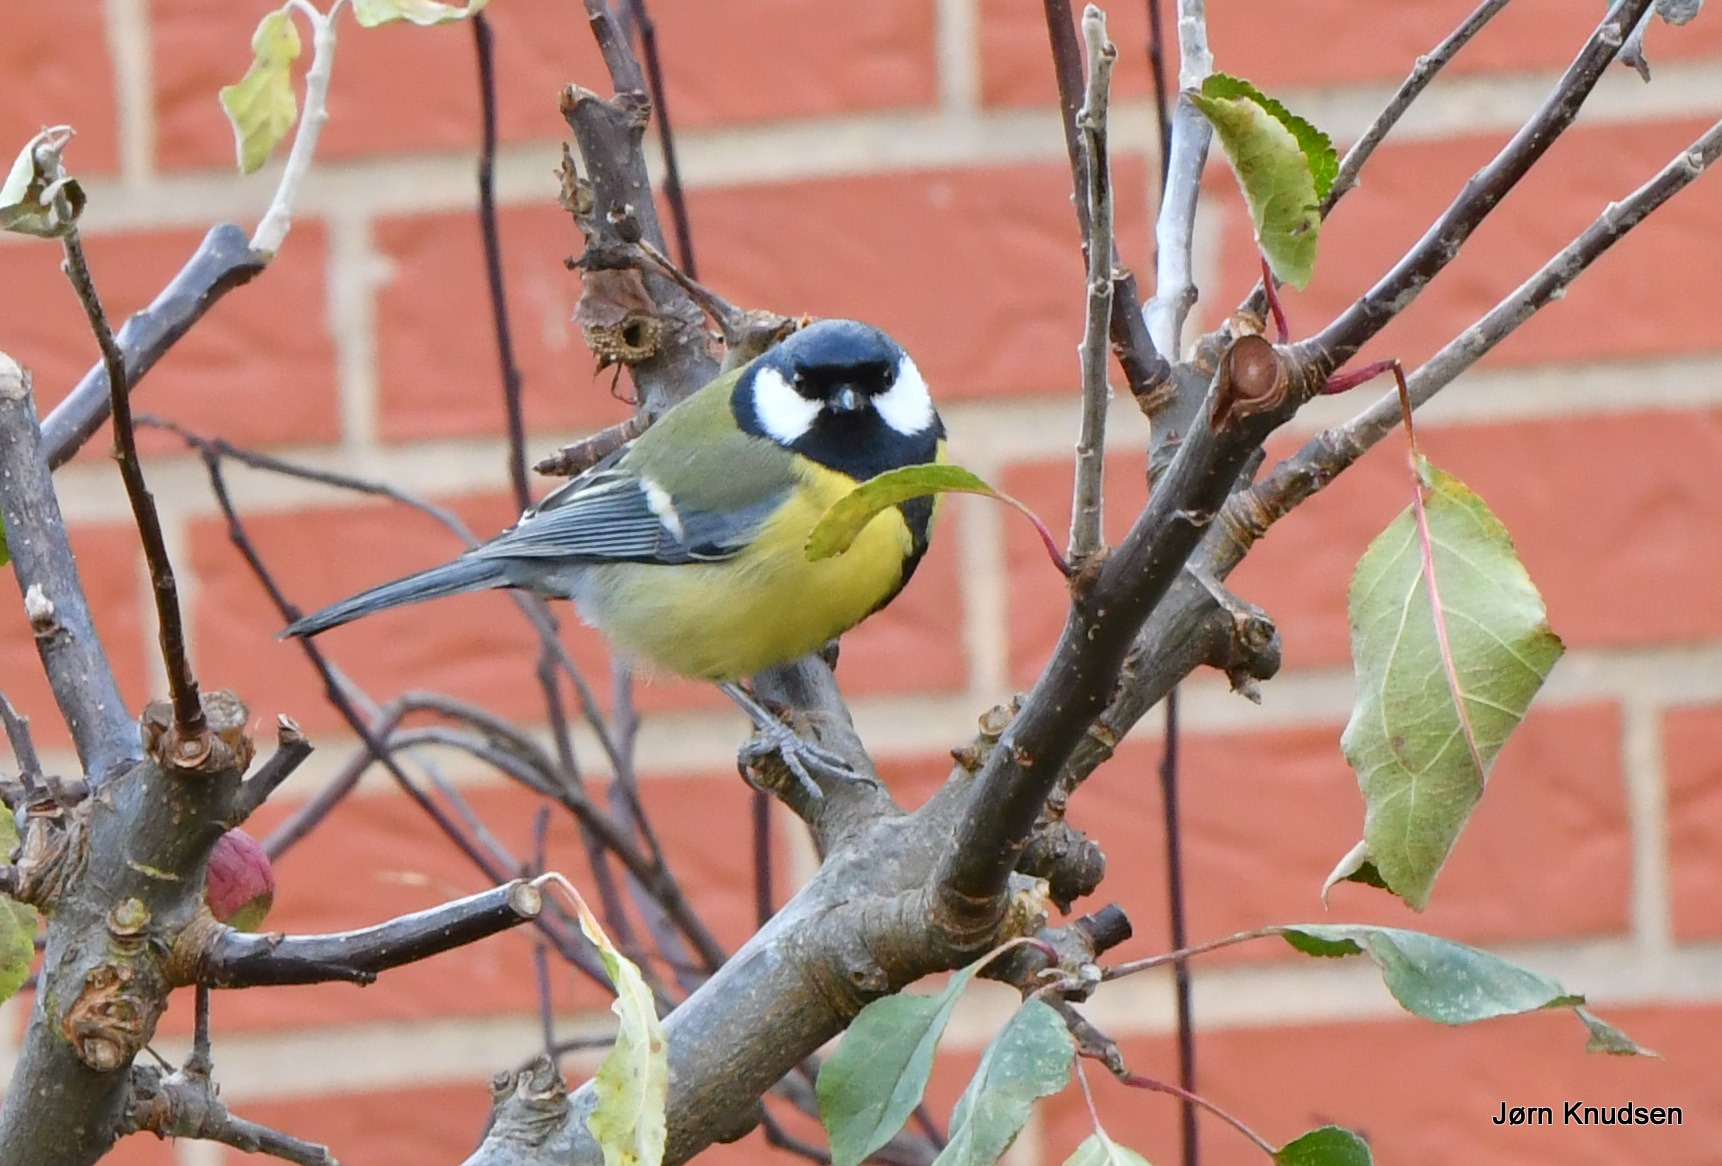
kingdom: Animalia
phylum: Chordata
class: Aves
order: Passeriformes
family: Paridae
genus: Parus
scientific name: Parus major
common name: Musvit
